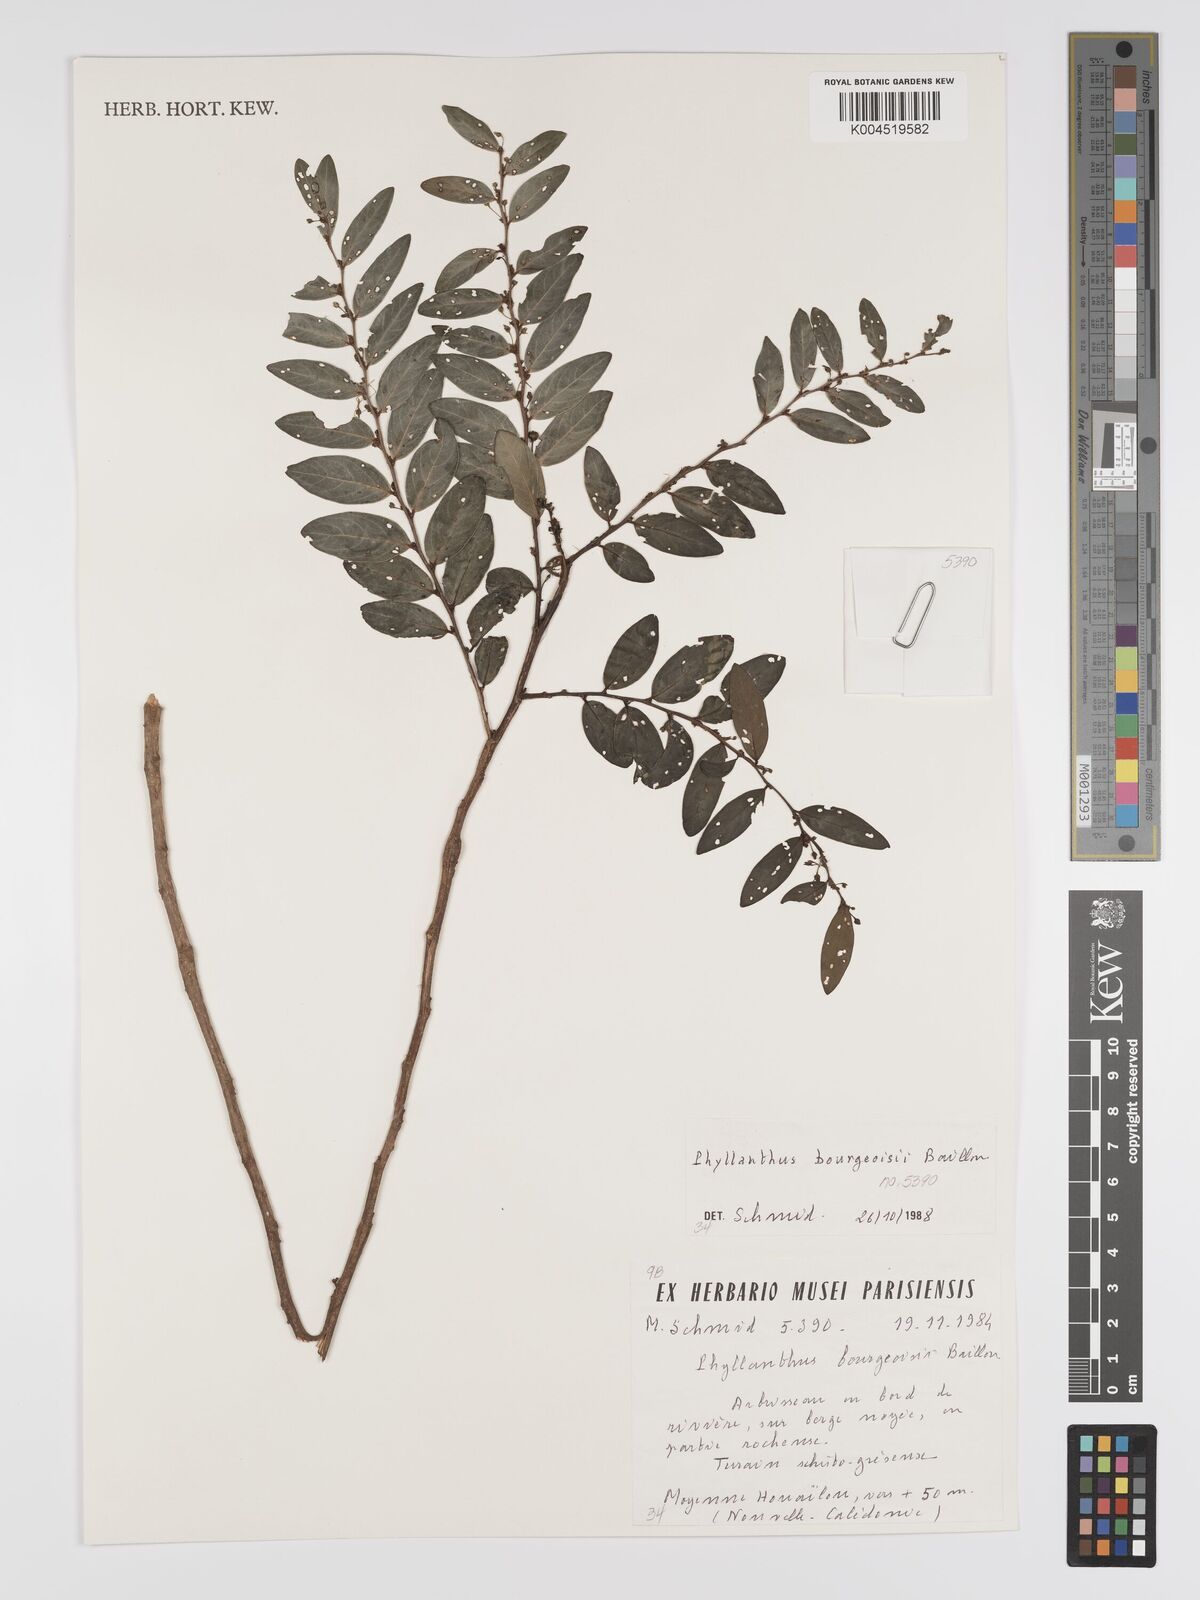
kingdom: Plantae
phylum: Tracheophyta
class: Magnoliopsida
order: Malpighiales
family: Phyllanthaceae
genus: Phyllanthus
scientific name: Phyllanthus bourgeoisii
